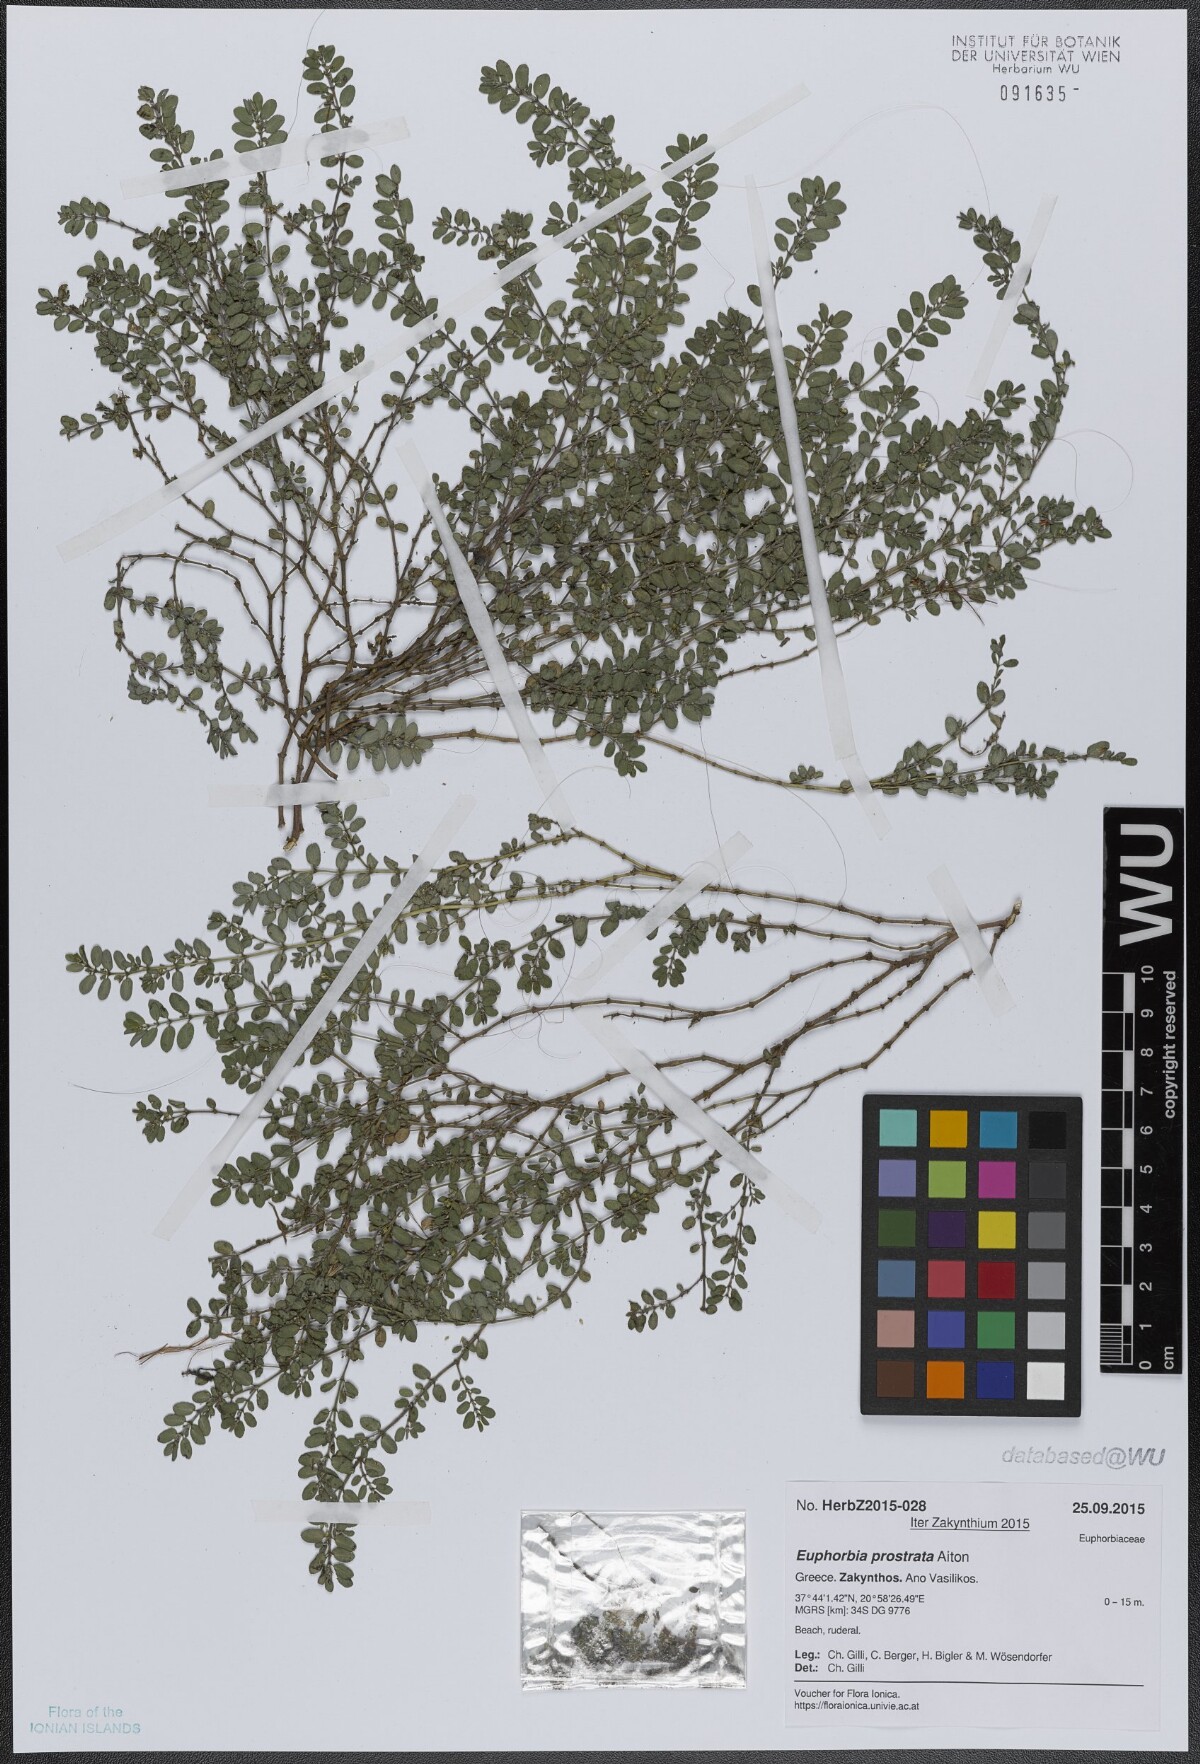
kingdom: Plantae
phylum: Tracheophyta
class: Magnoliopsida
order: Malpighiales
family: Euphorbiaceae
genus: Euphorbia
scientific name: Euphorbia prostrata
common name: Prostrate sandmat
